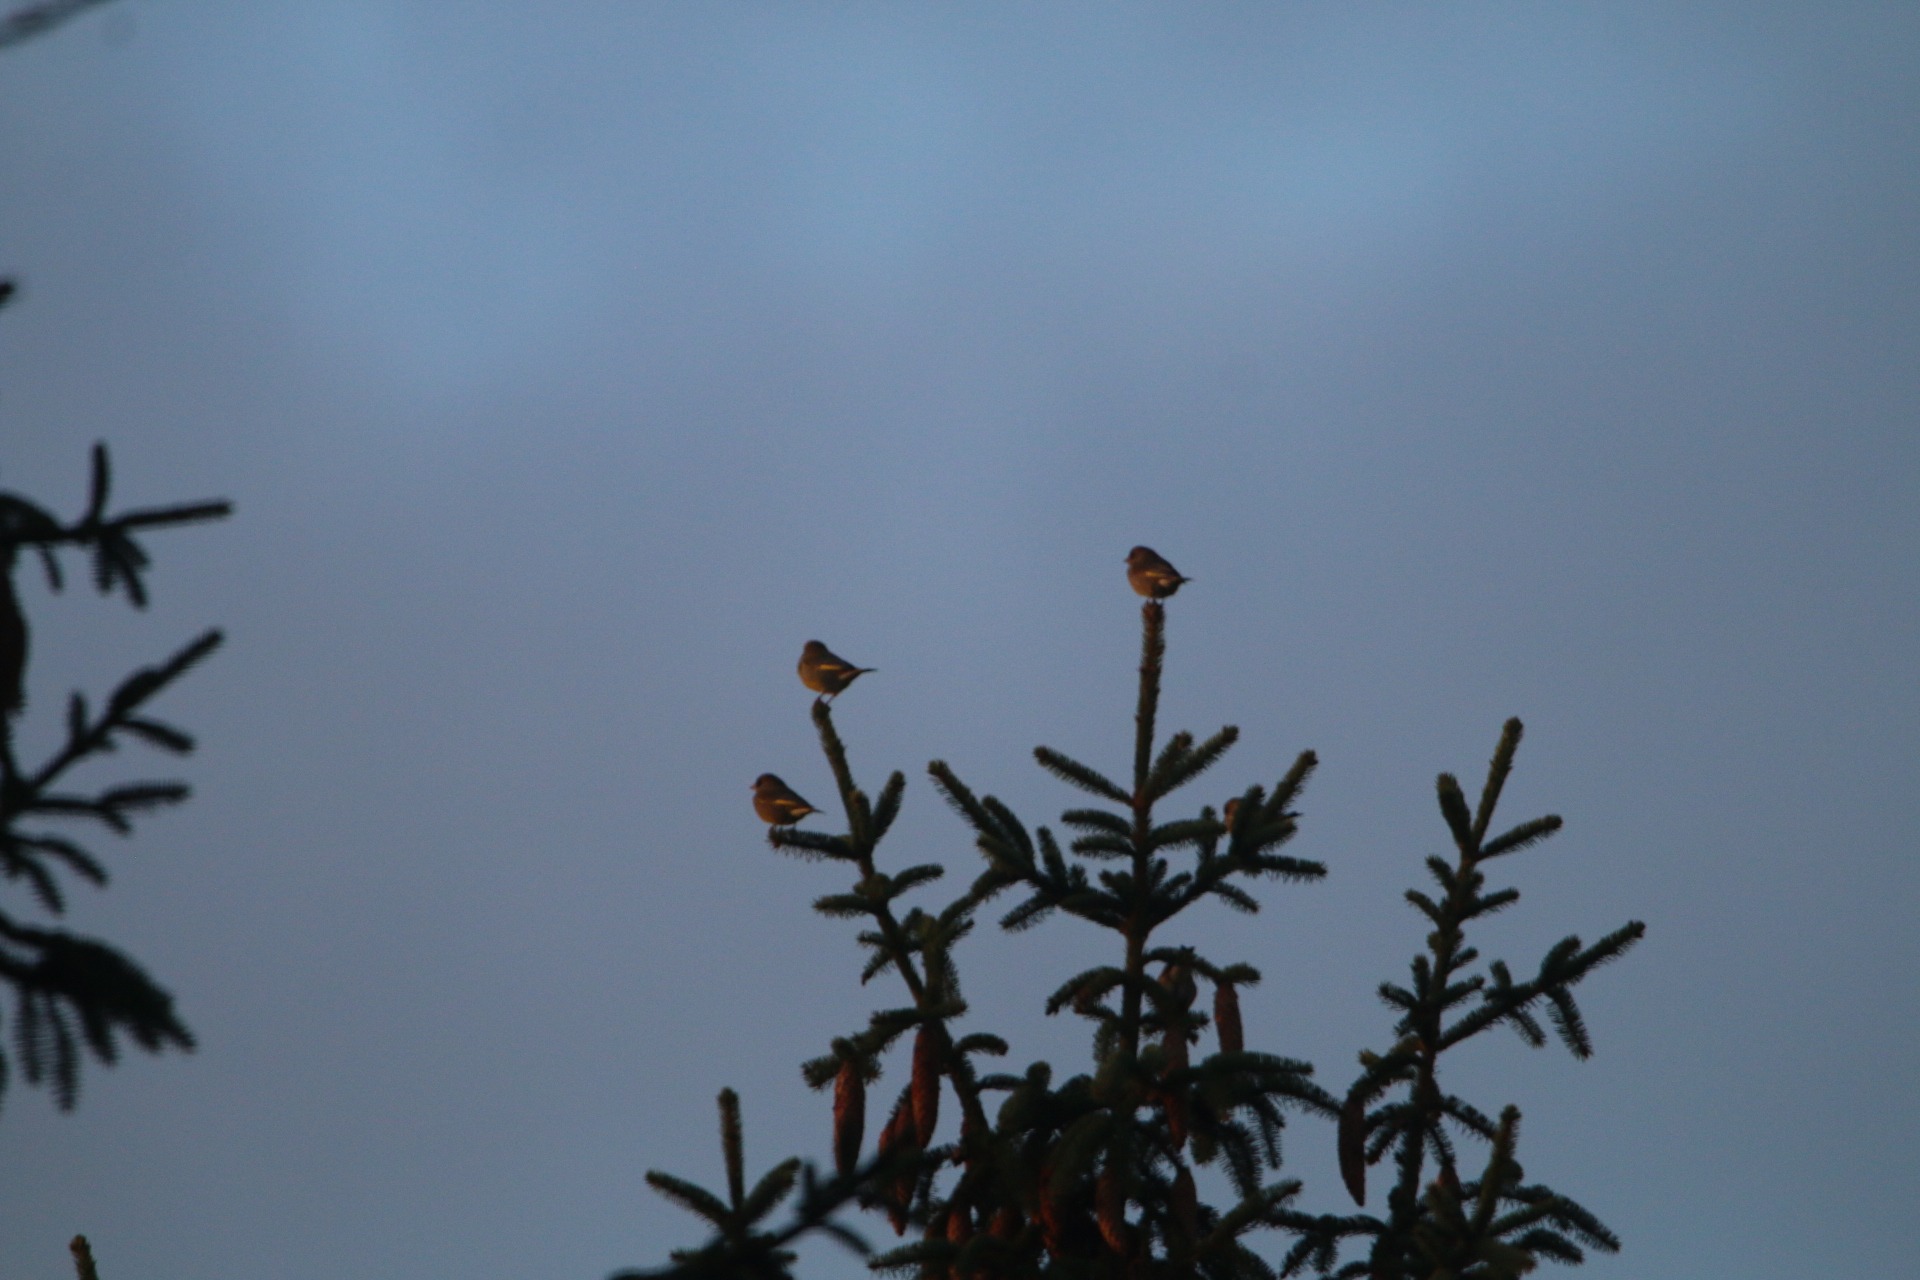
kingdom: Plantae
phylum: Tracheophyta
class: Liliopsida
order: Poales
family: Poaceae
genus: Chloris
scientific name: Chloris chloris
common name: Grønirisk
